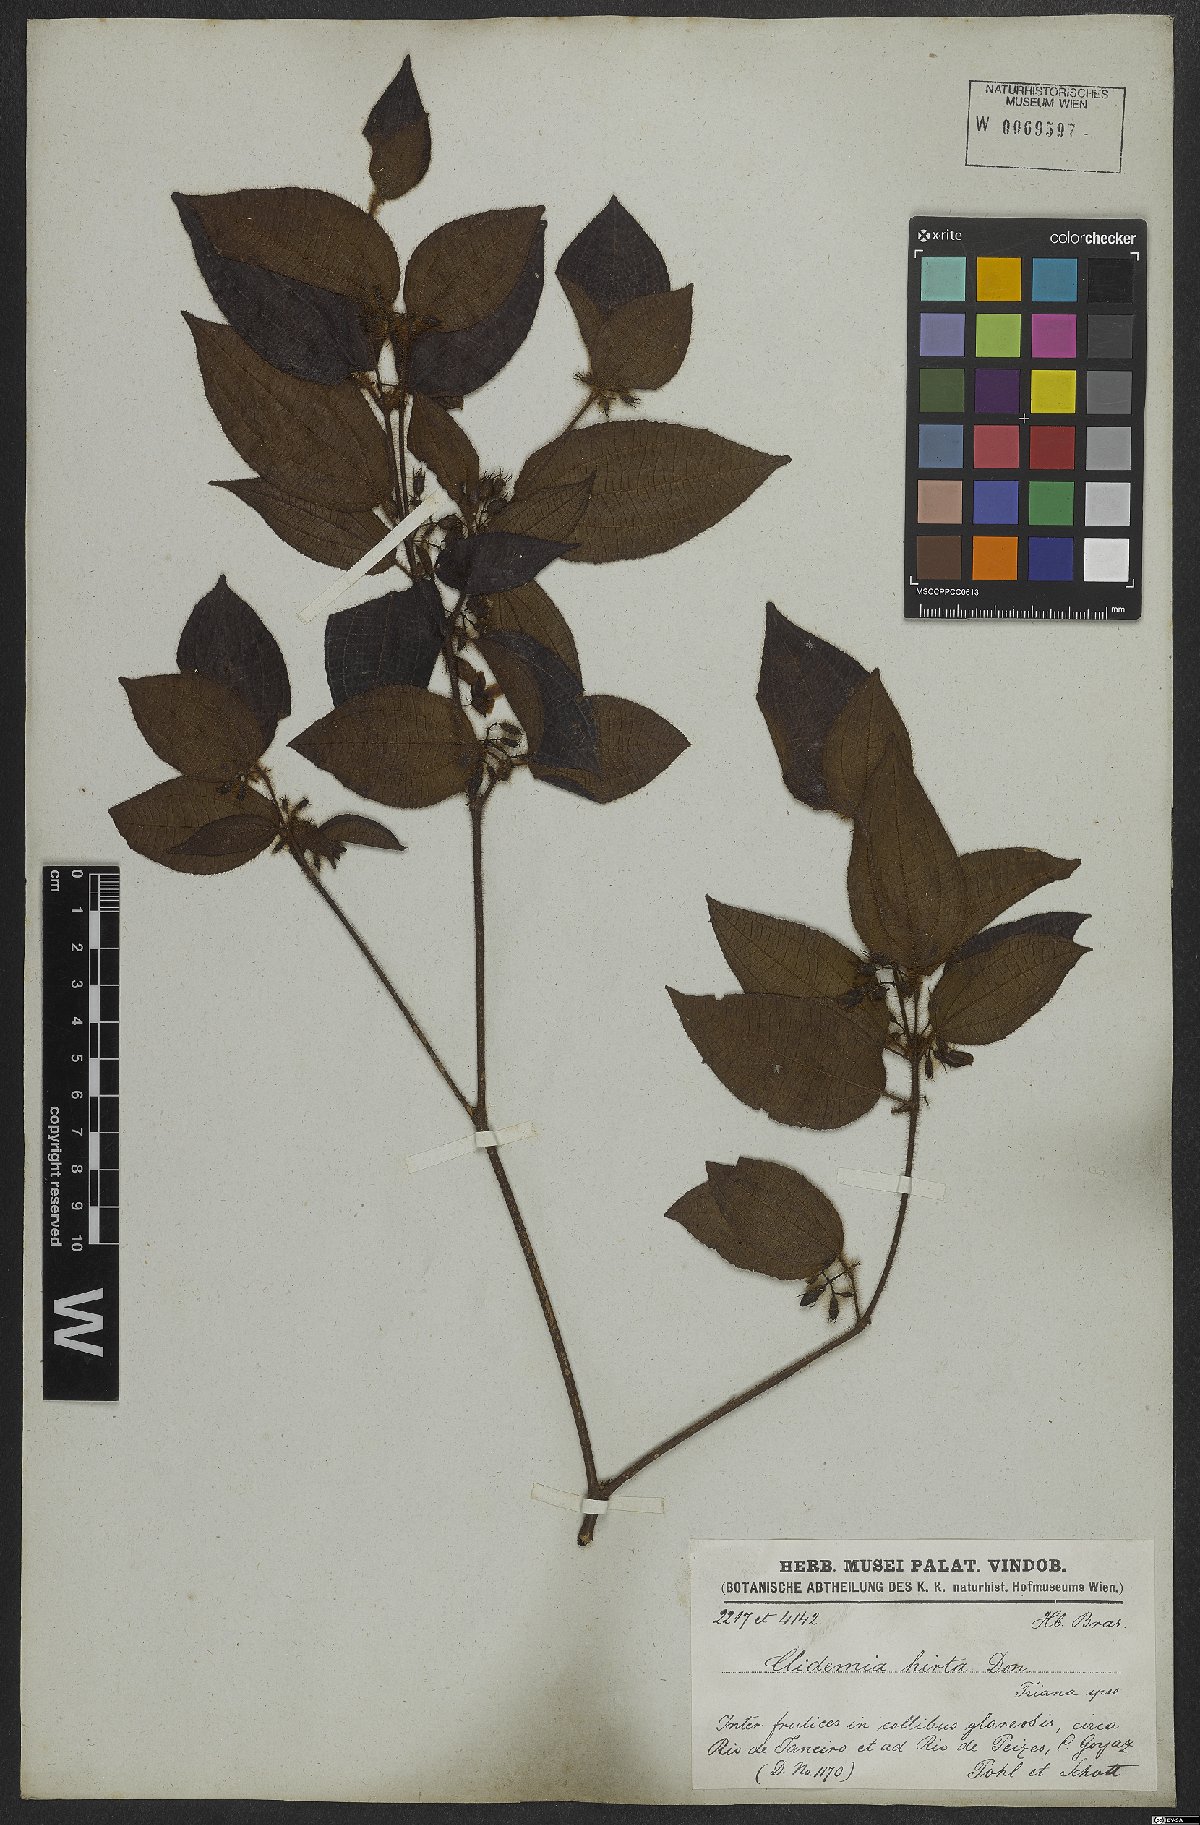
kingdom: Plantae
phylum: Tracheophyta
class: Magnoliopsida
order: Myrtales
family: Melastomataceae
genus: Miconia
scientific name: Miconia crenata
